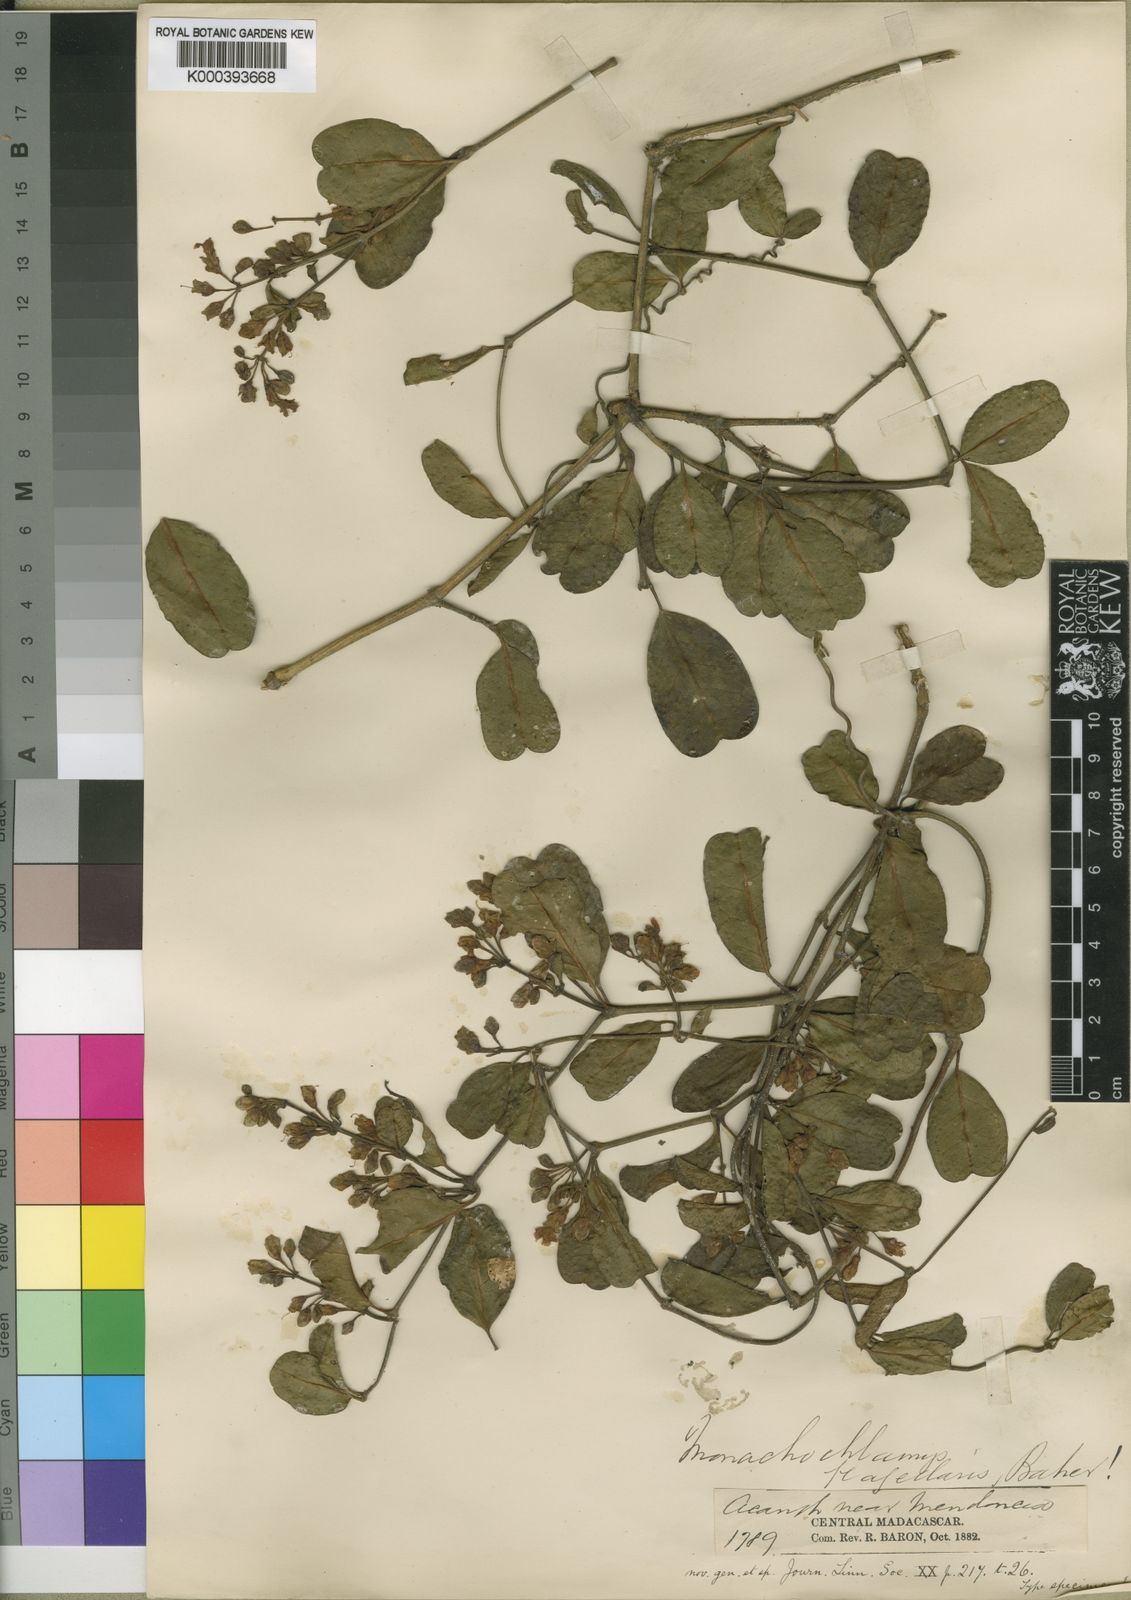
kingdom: Plantae
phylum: Tracheophyta
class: Magnoliopsida
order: Lamiales
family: Acanthaceae
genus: Mendoncia
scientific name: Mendoncia flagellaris
